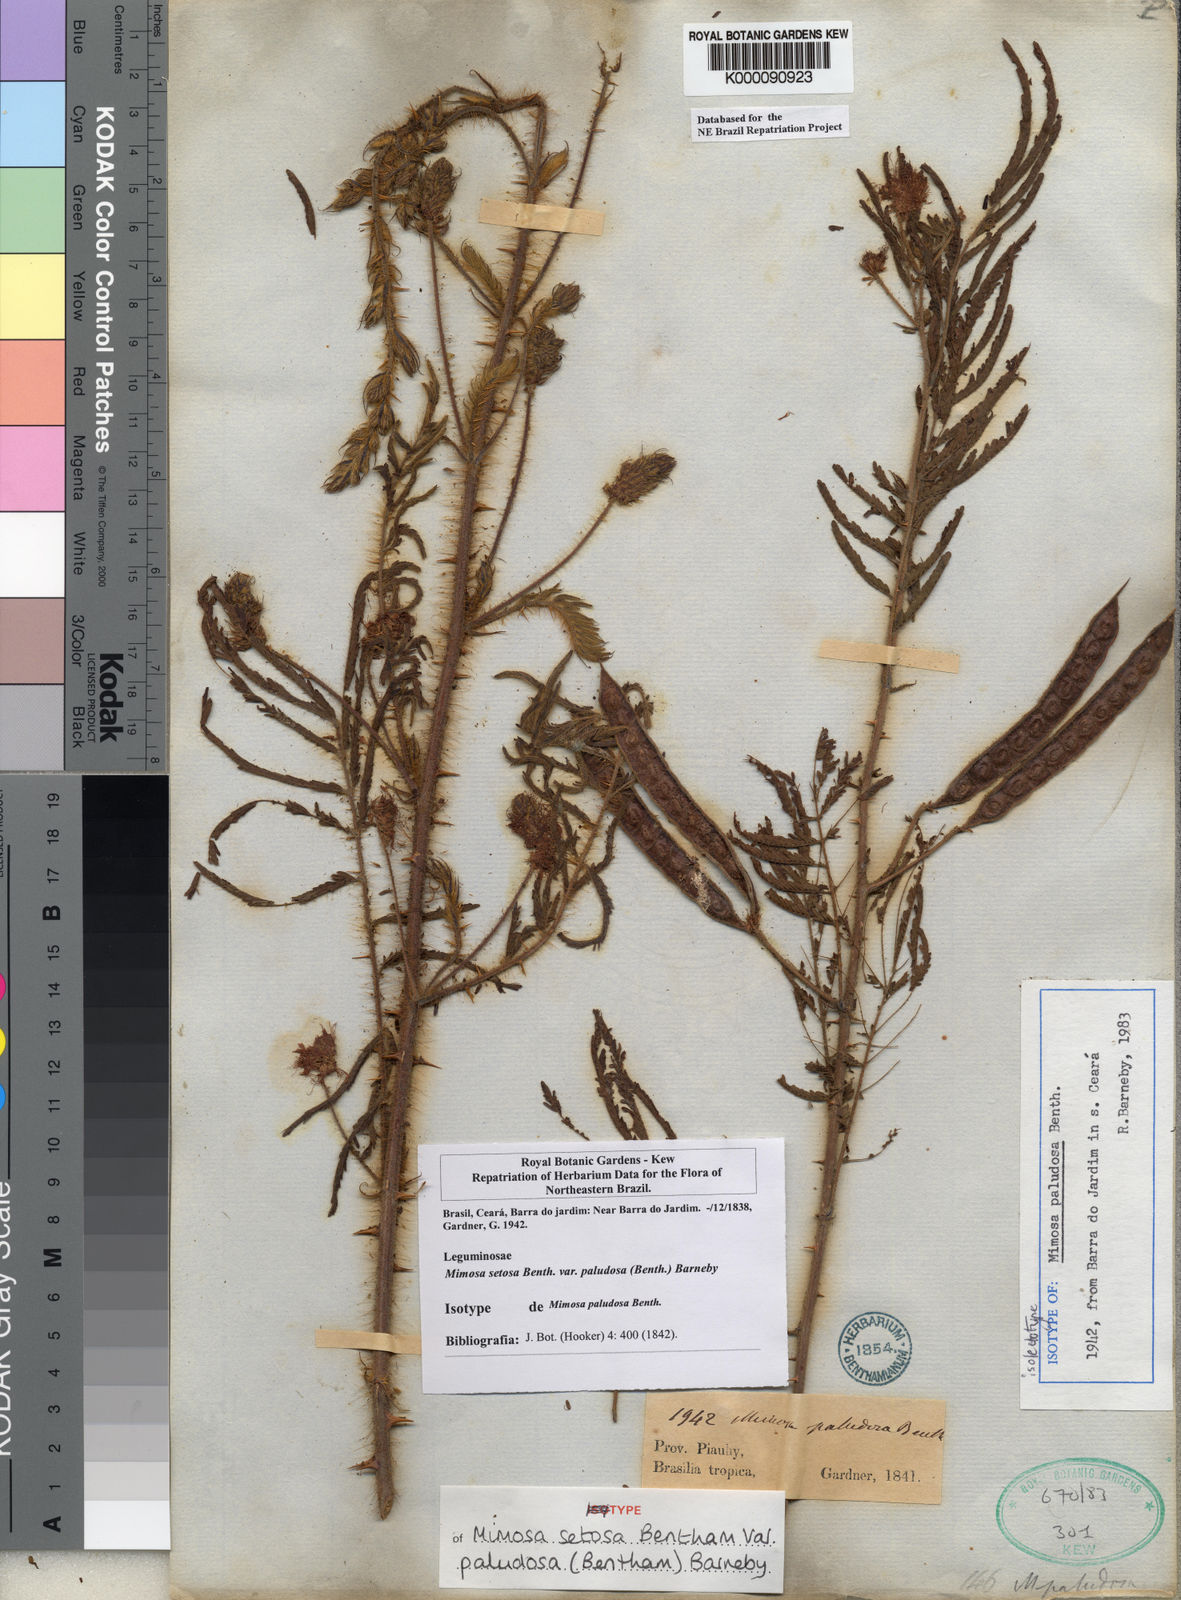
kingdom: Plantae
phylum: Tracheophyta
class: Magnoliopsida
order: Fabales
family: Fabaceae
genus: Mimosa
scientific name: Mimosa paludosa
